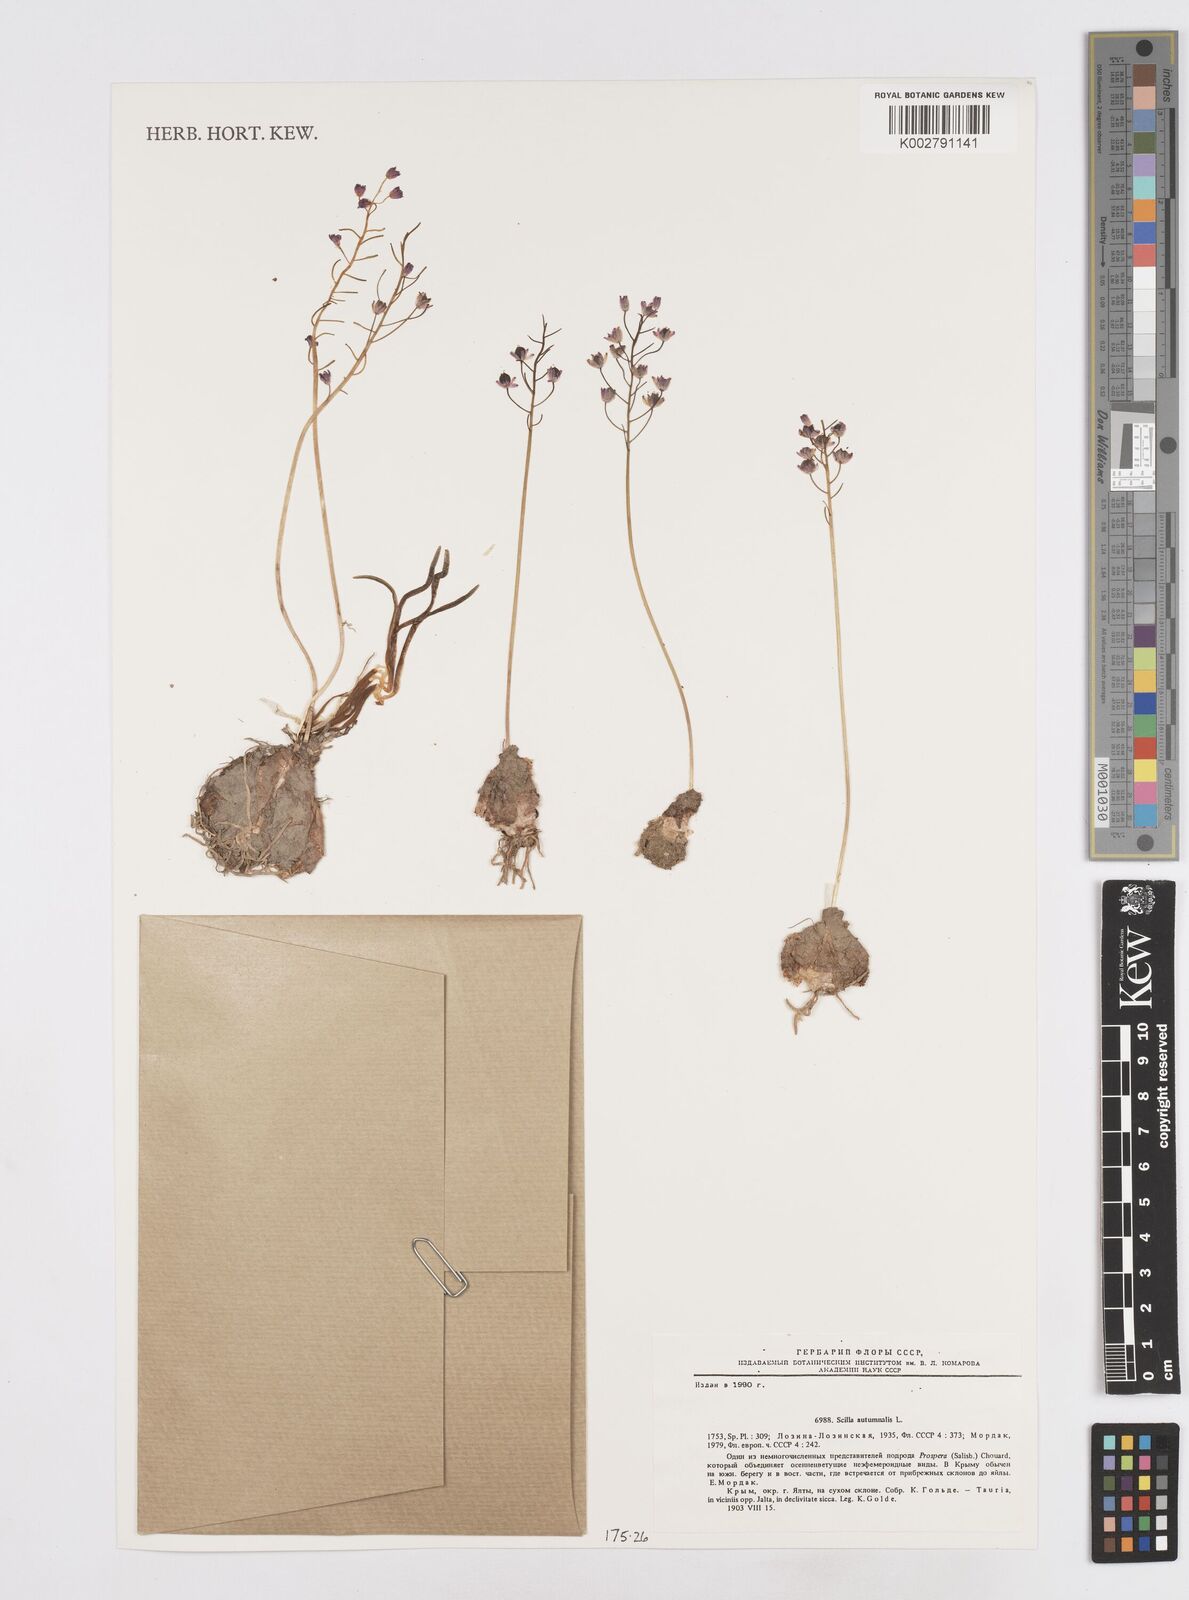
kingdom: Plantae
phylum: Tracheophyta
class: Liliopsida
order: Asparagales
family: Asparagaceae
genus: Prospero
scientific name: Prospero autumnale
